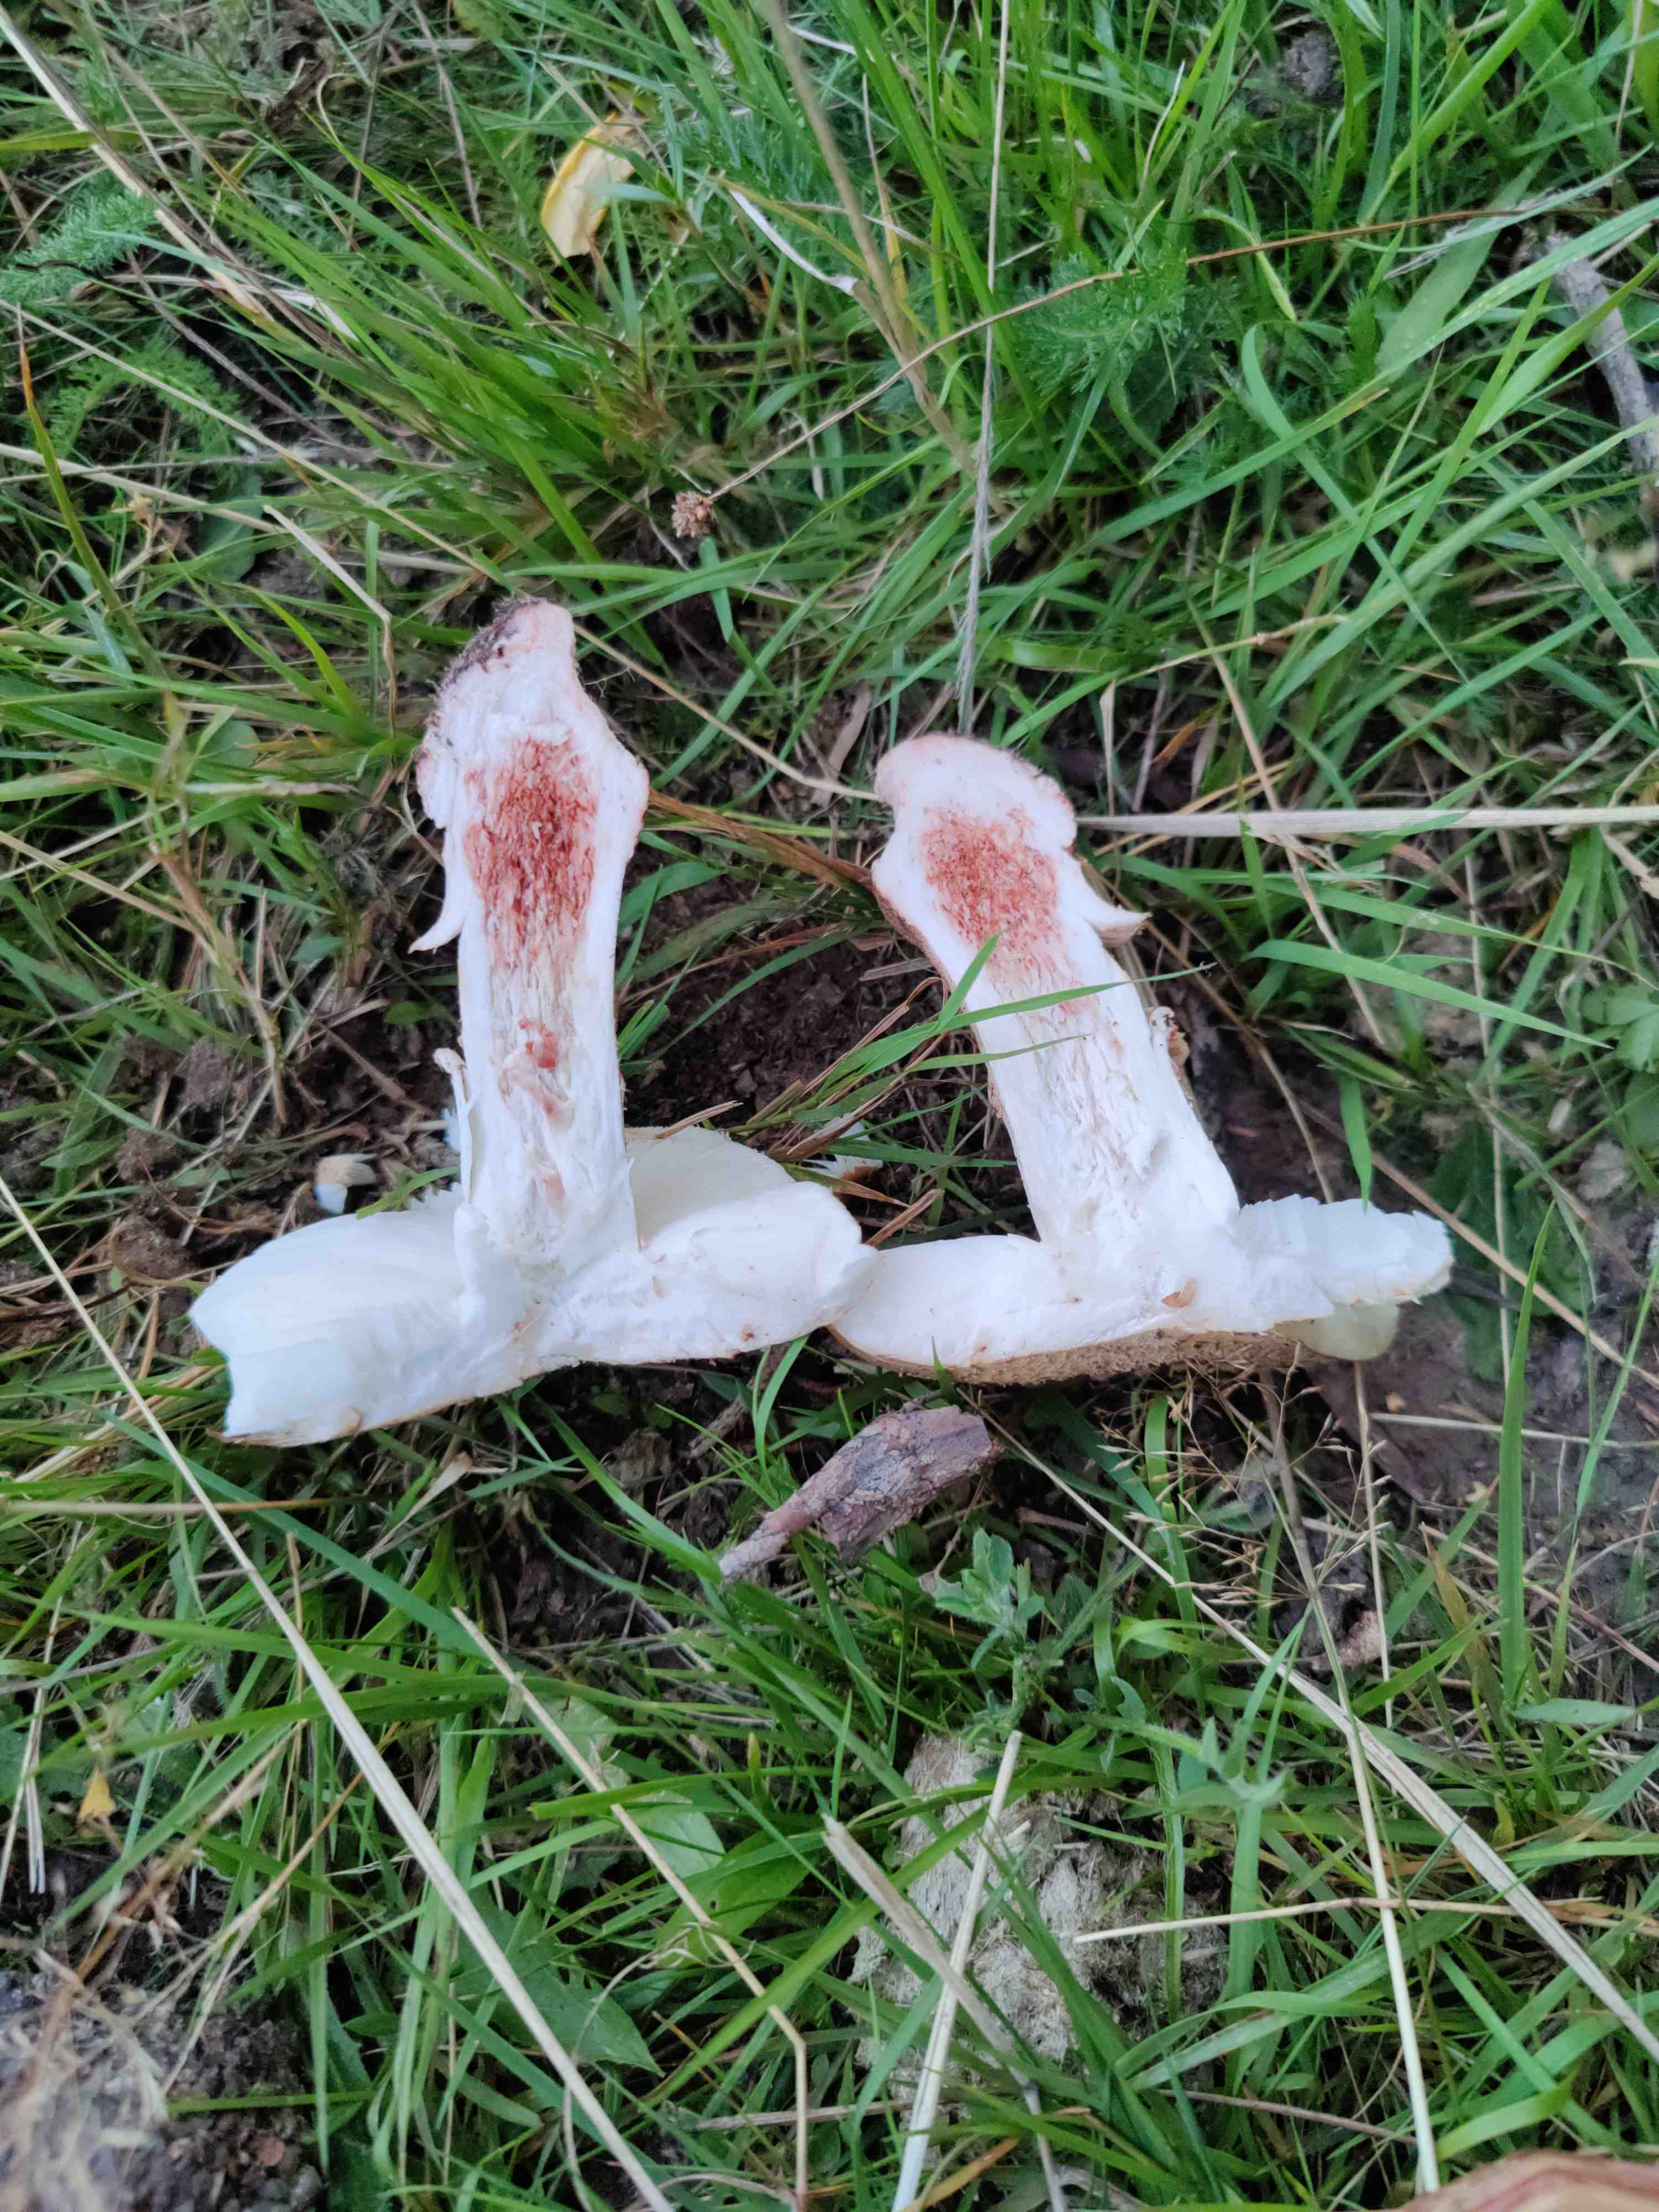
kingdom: Fungi
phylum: Basidiomycota
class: Agaricomycetes
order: Agaricales
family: Amanitaceae
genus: Amanita
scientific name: Amanita rubescens
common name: rødmende fluesvamp
